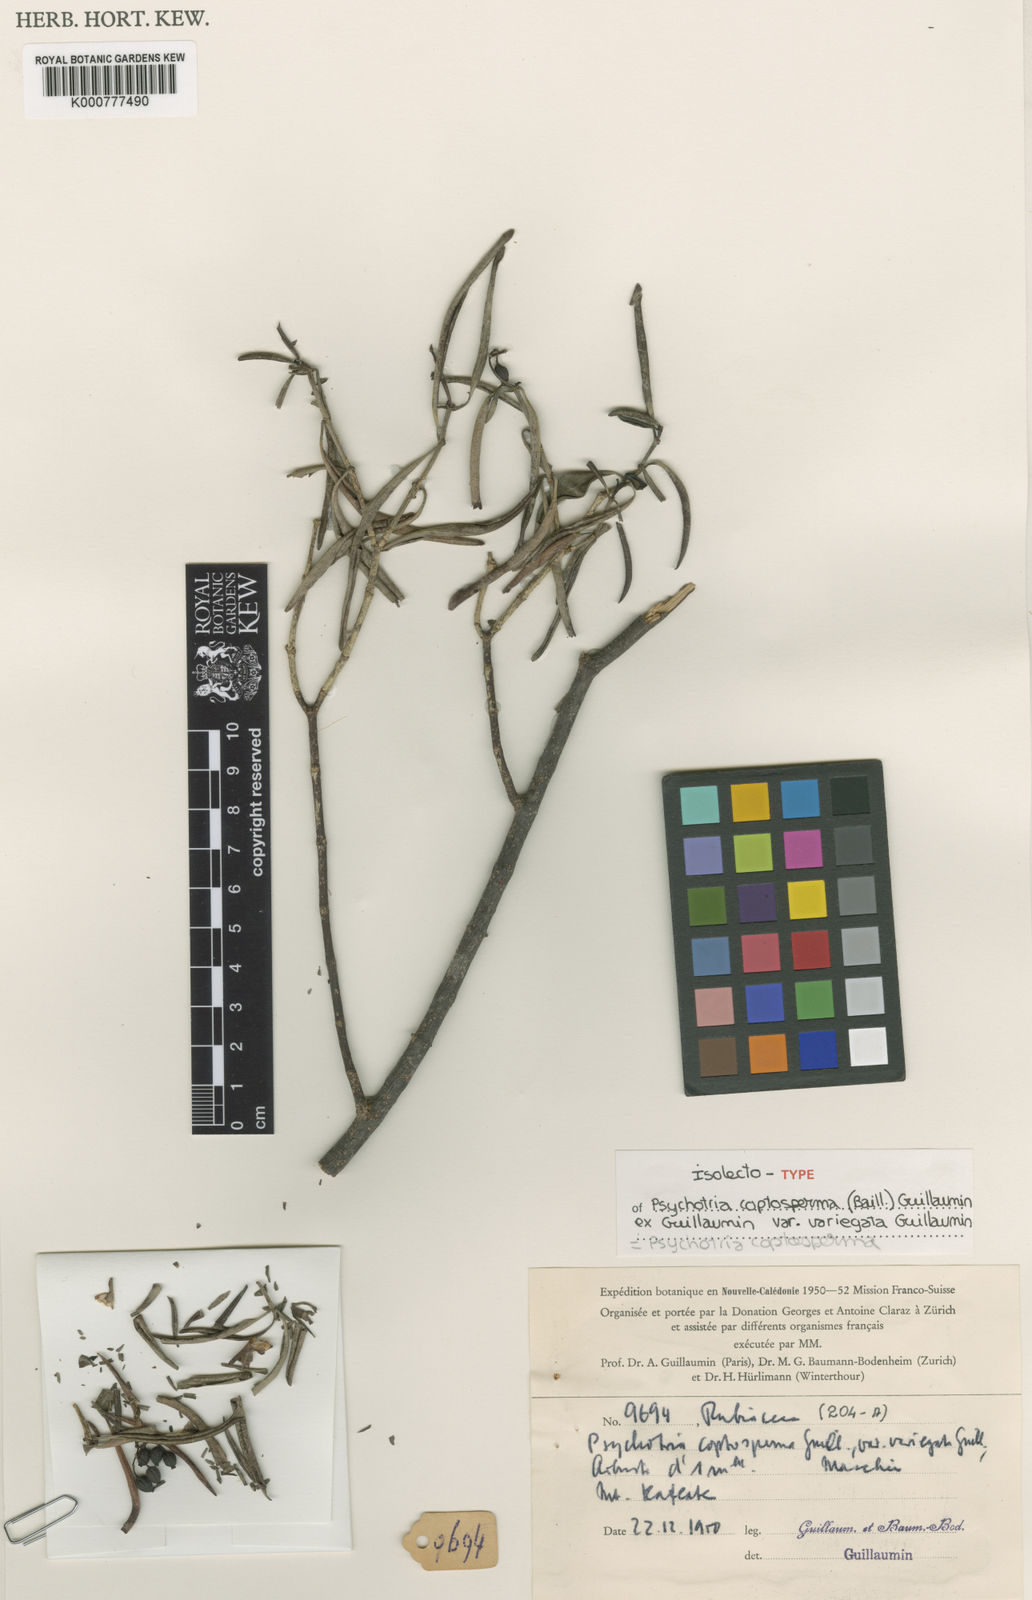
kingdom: Plantae
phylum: Tracheophyta
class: Magnoliopsida
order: Gentianales
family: Rubiaceae
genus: Psychotria
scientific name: Psychotria coptosperma
